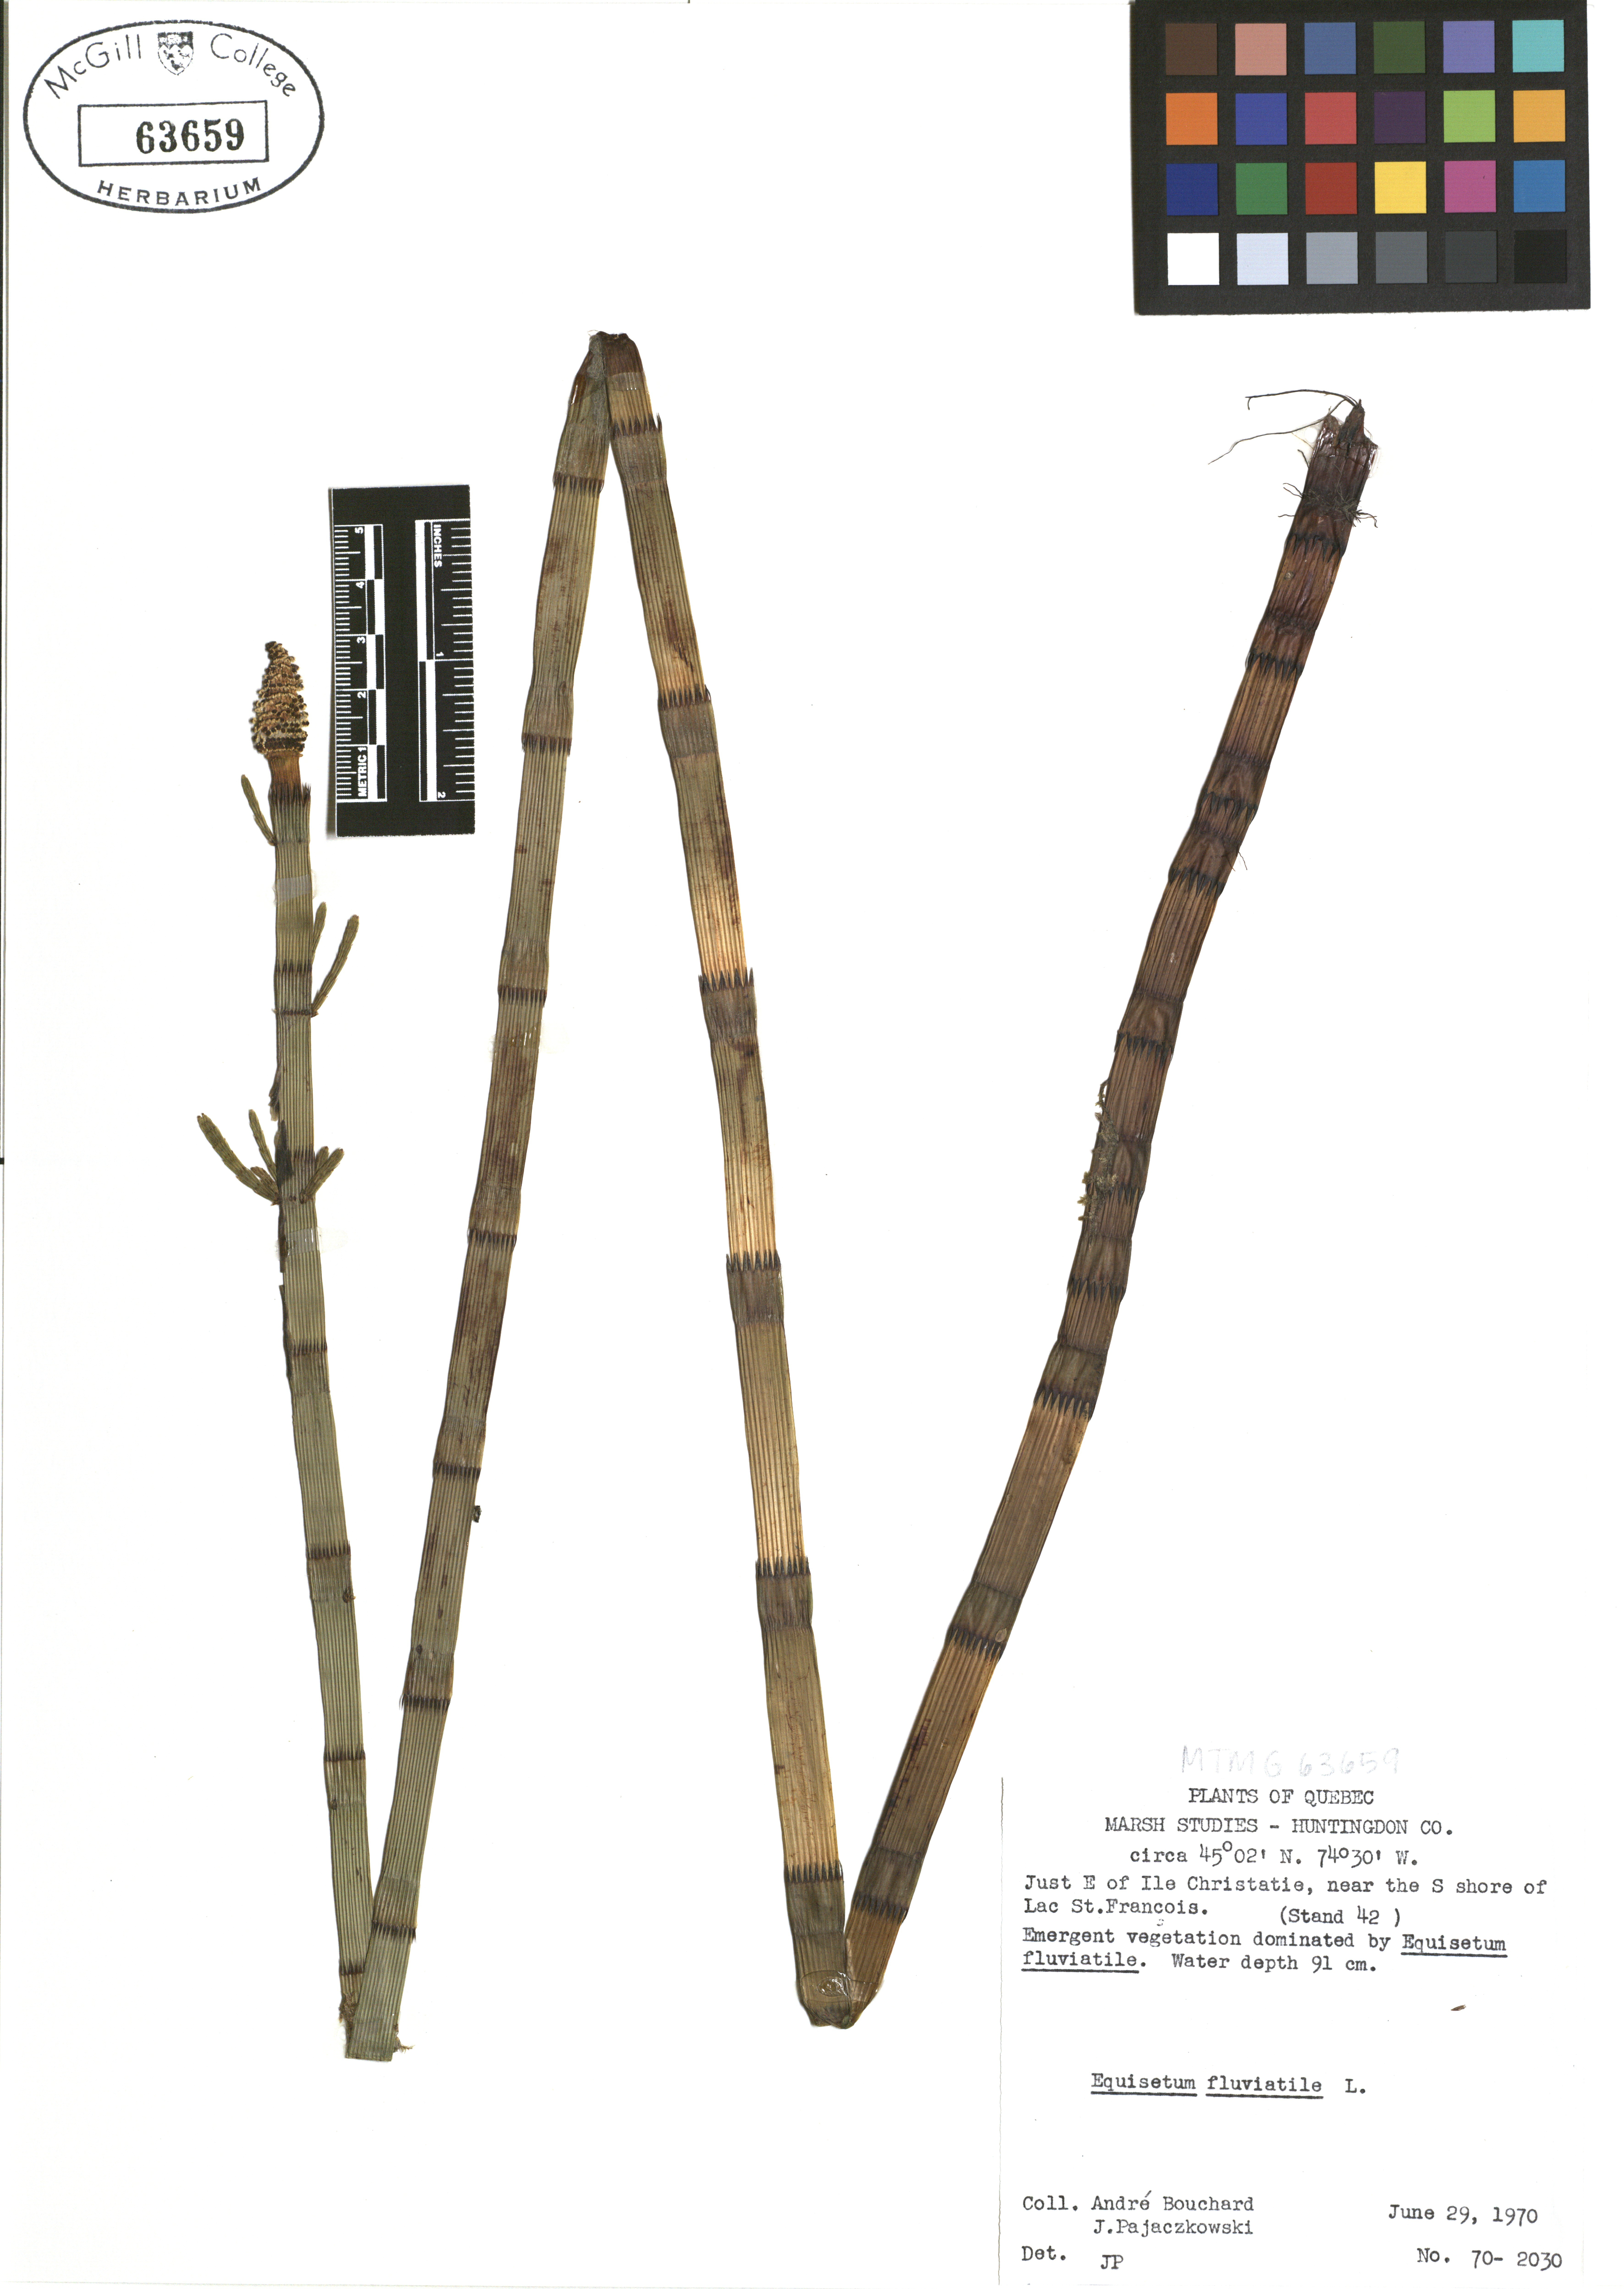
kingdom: Plantae
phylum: Tracheophyta
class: Polypodiopsida
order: Equisetales
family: Equisetaceae
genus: Equisetum
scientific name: Equisetum fluviatile
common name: Water horsetail
